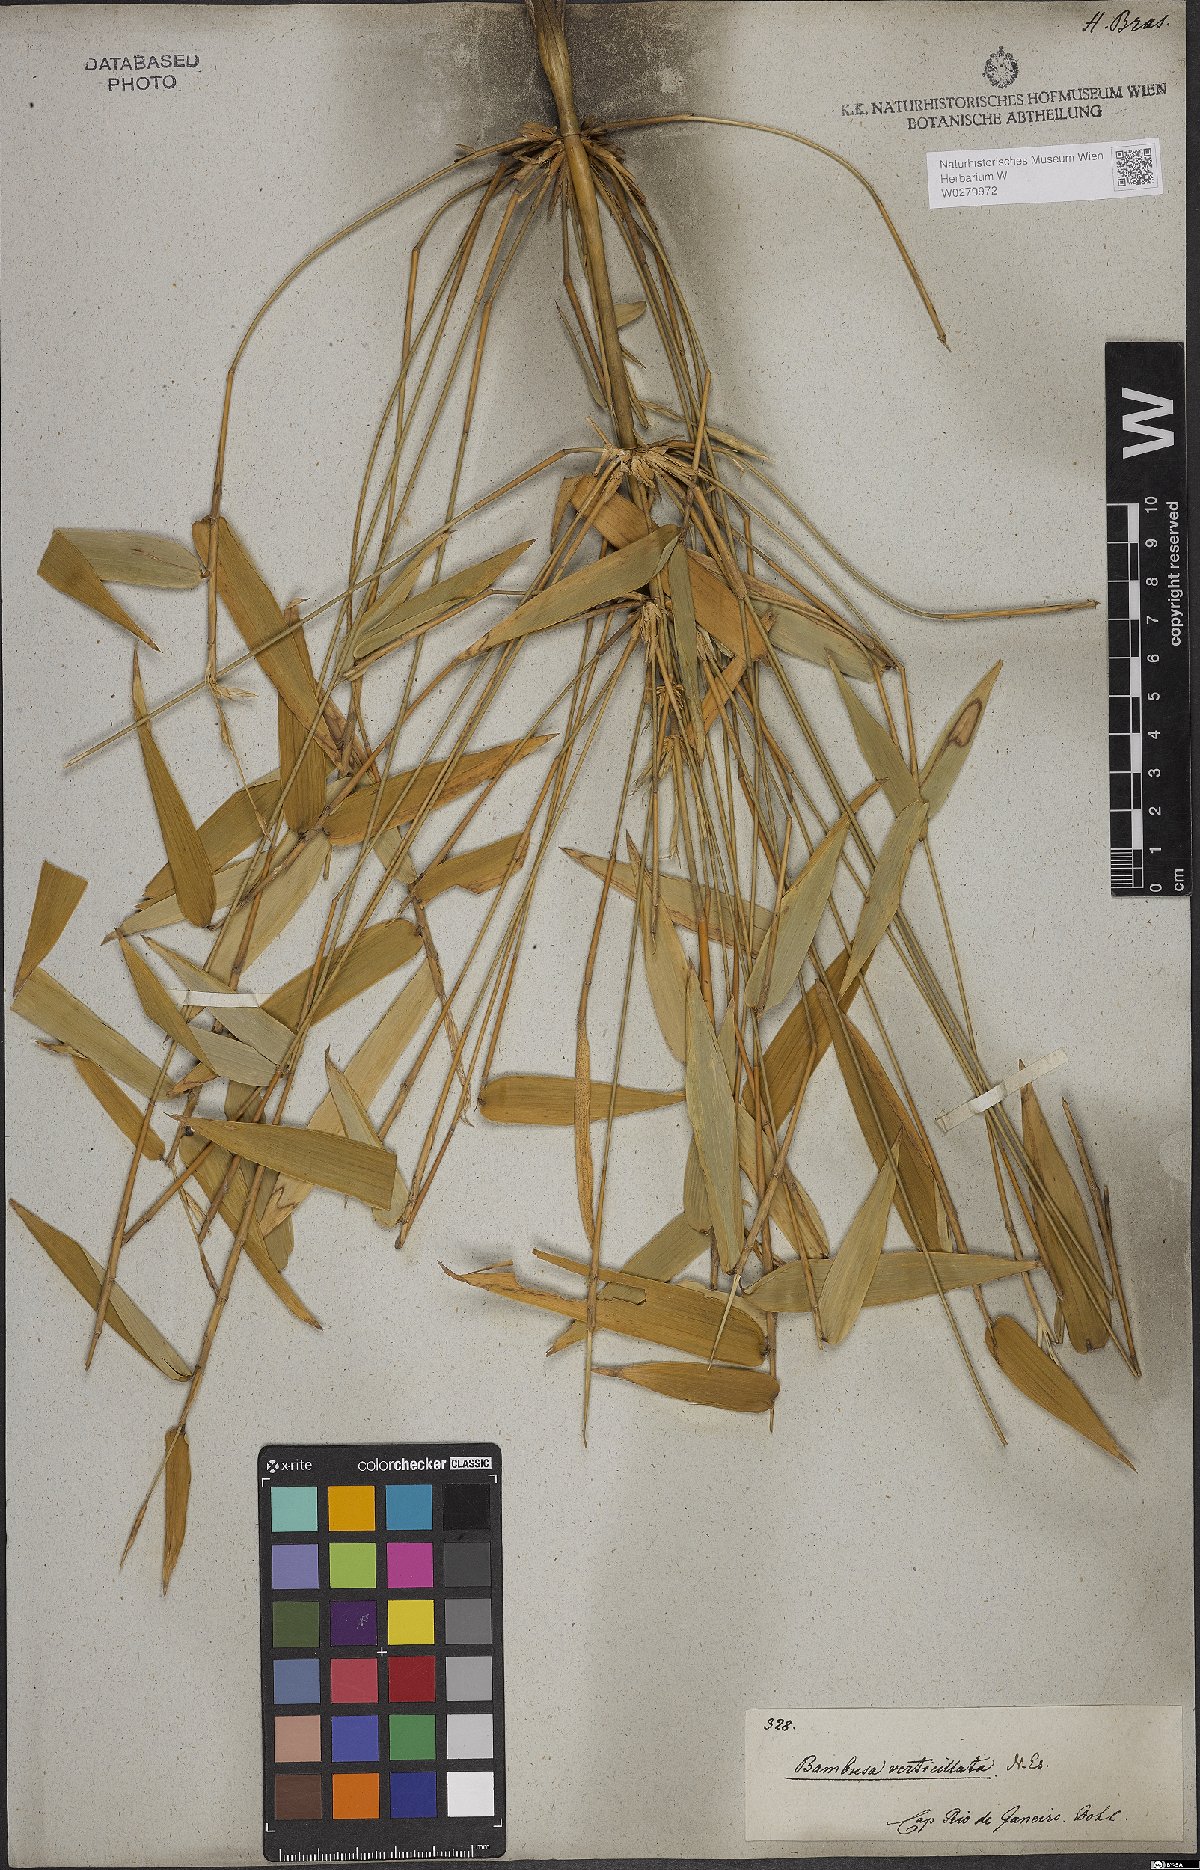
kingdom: Plantae
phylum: Tracheophyta
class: Liliopsida
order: Poales
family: Poaceae
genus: Bambusa
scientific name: Bambusa
